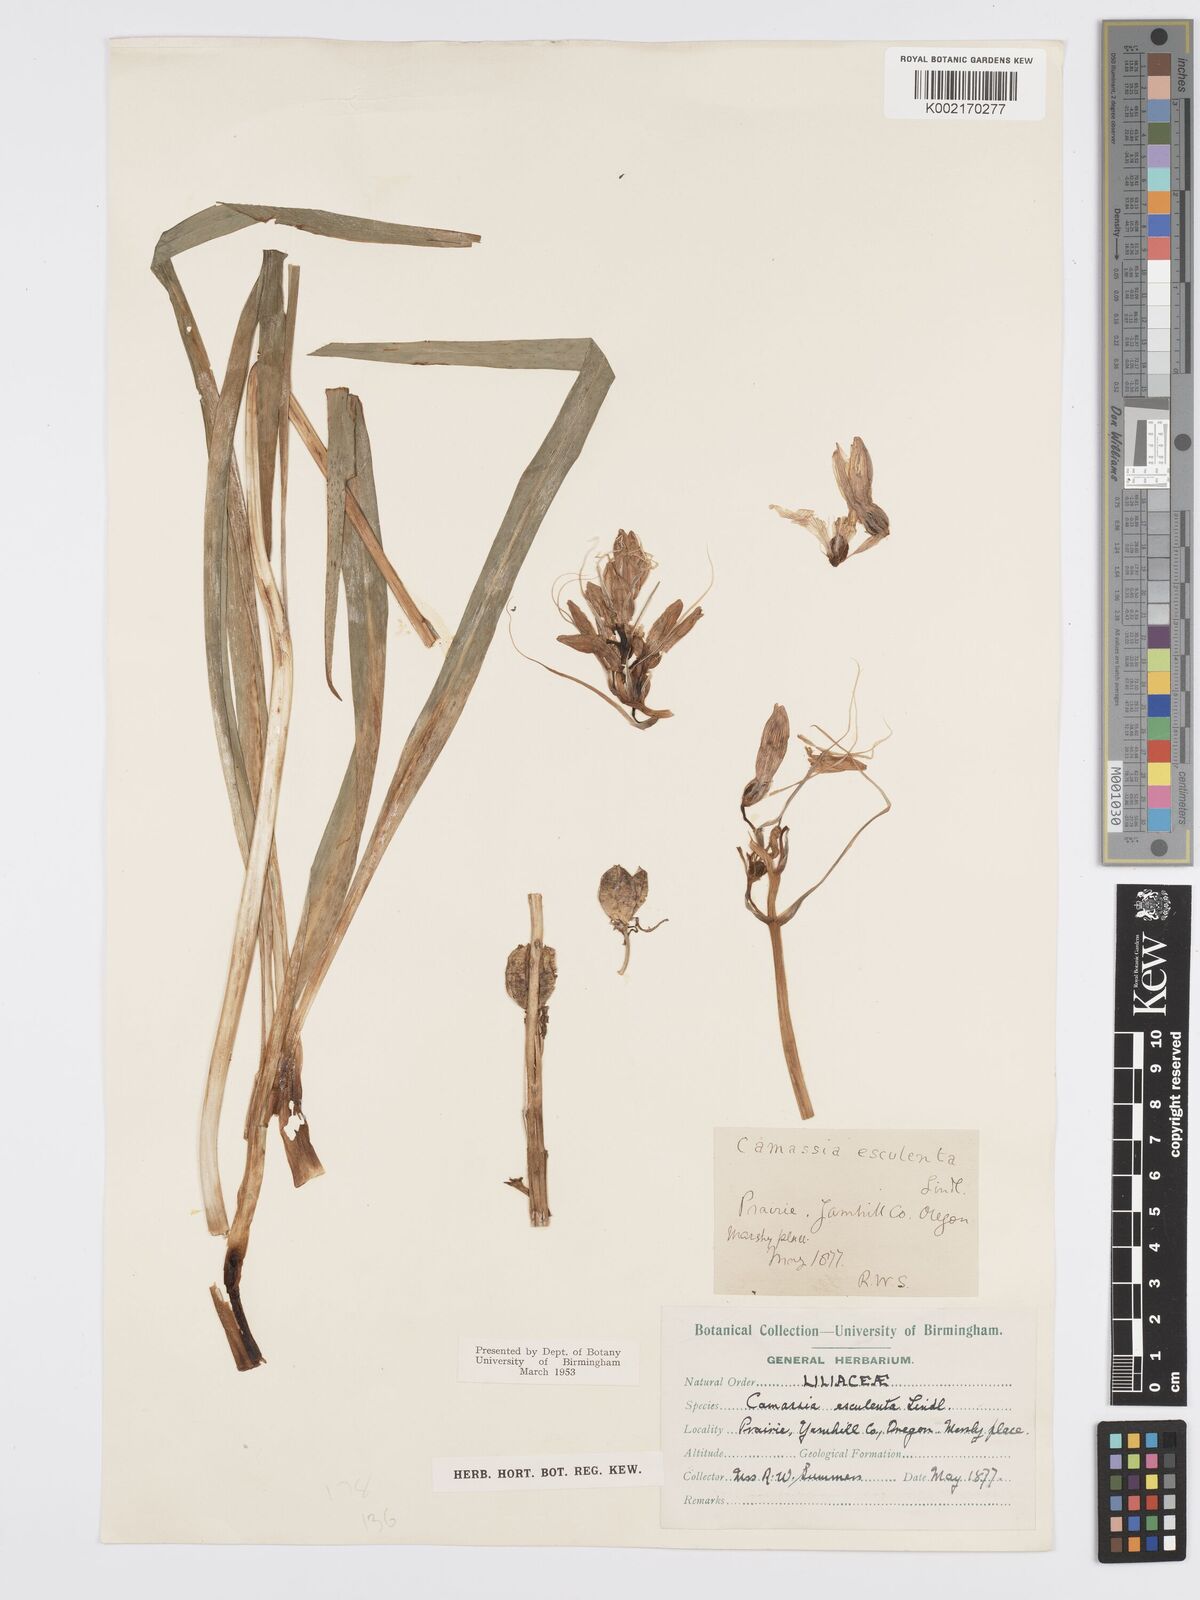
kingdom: Plantae
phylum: Tracheophyta
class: Liliopsida
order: Asparagales
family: Asparagaceae
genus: Camassia
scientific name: Camassia leichtlinii
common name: Leichtlin's camas
